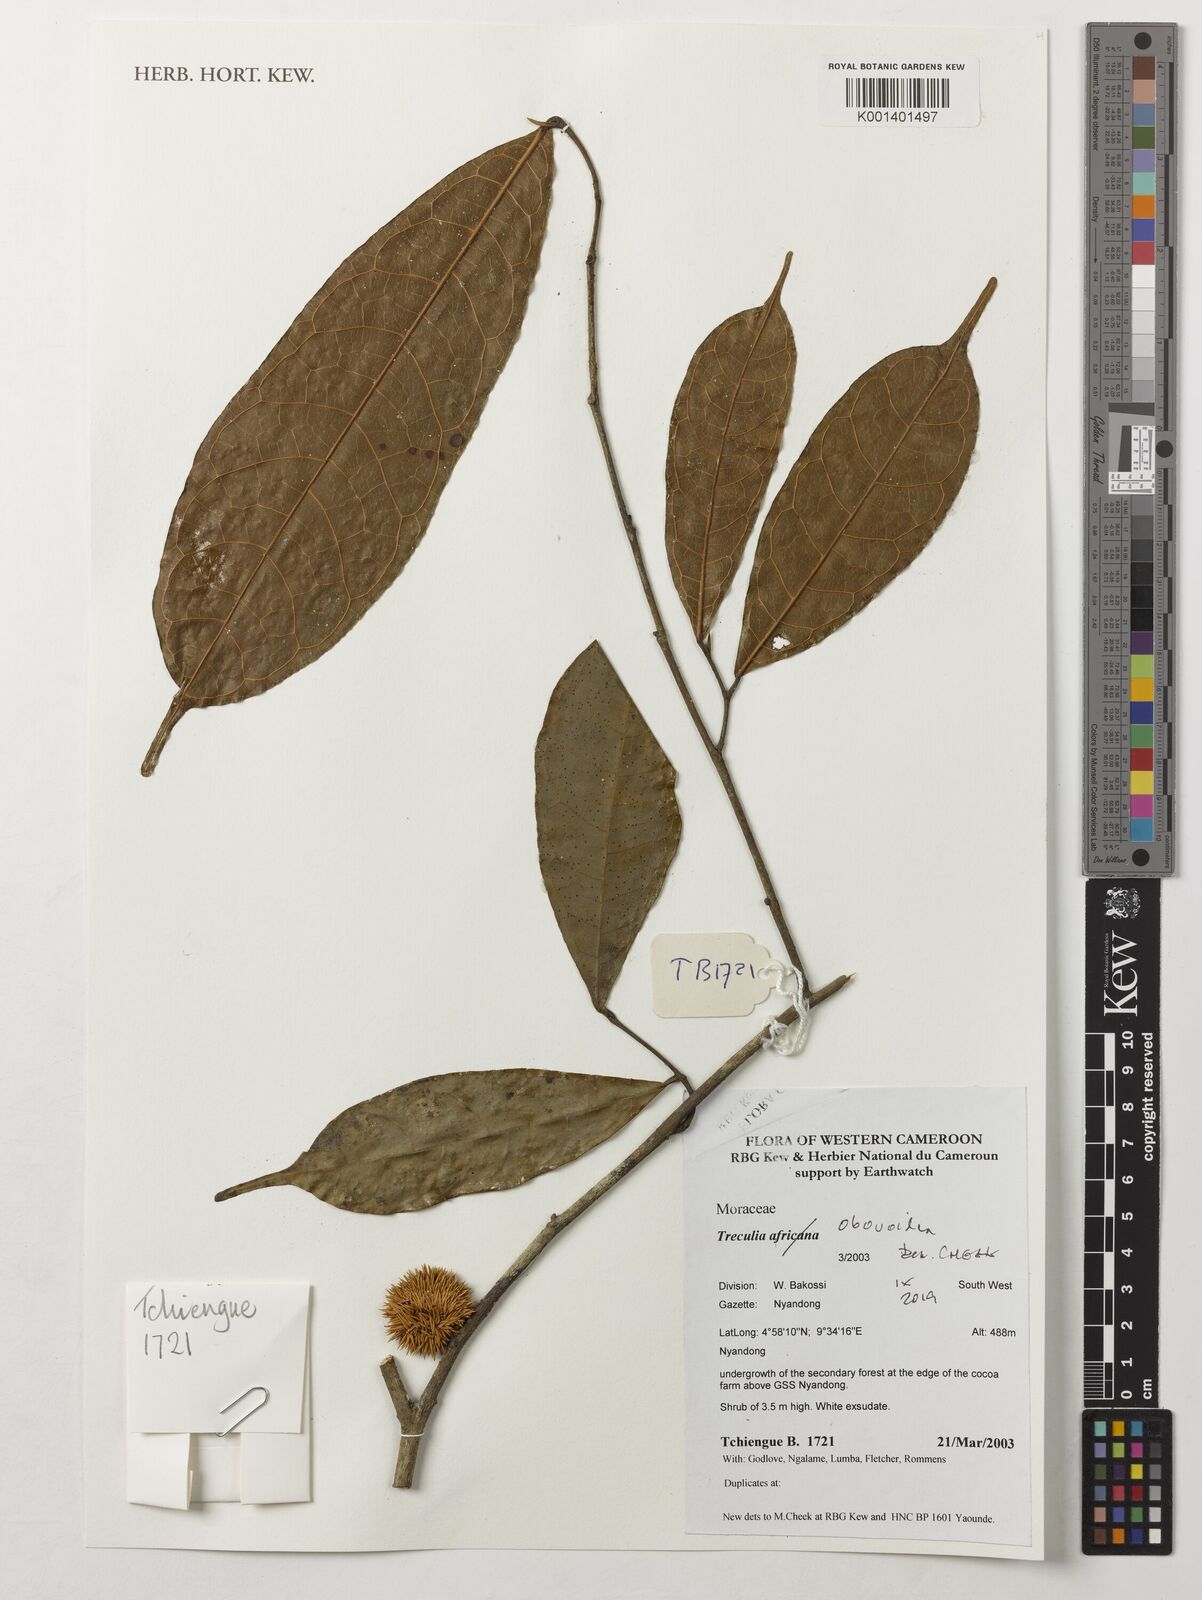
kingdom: Plantae
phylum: Tracheophyta
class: Magnoliopsida
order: Rosales
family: Moraceae
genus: Treculia
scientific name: Treculia obovoidea
